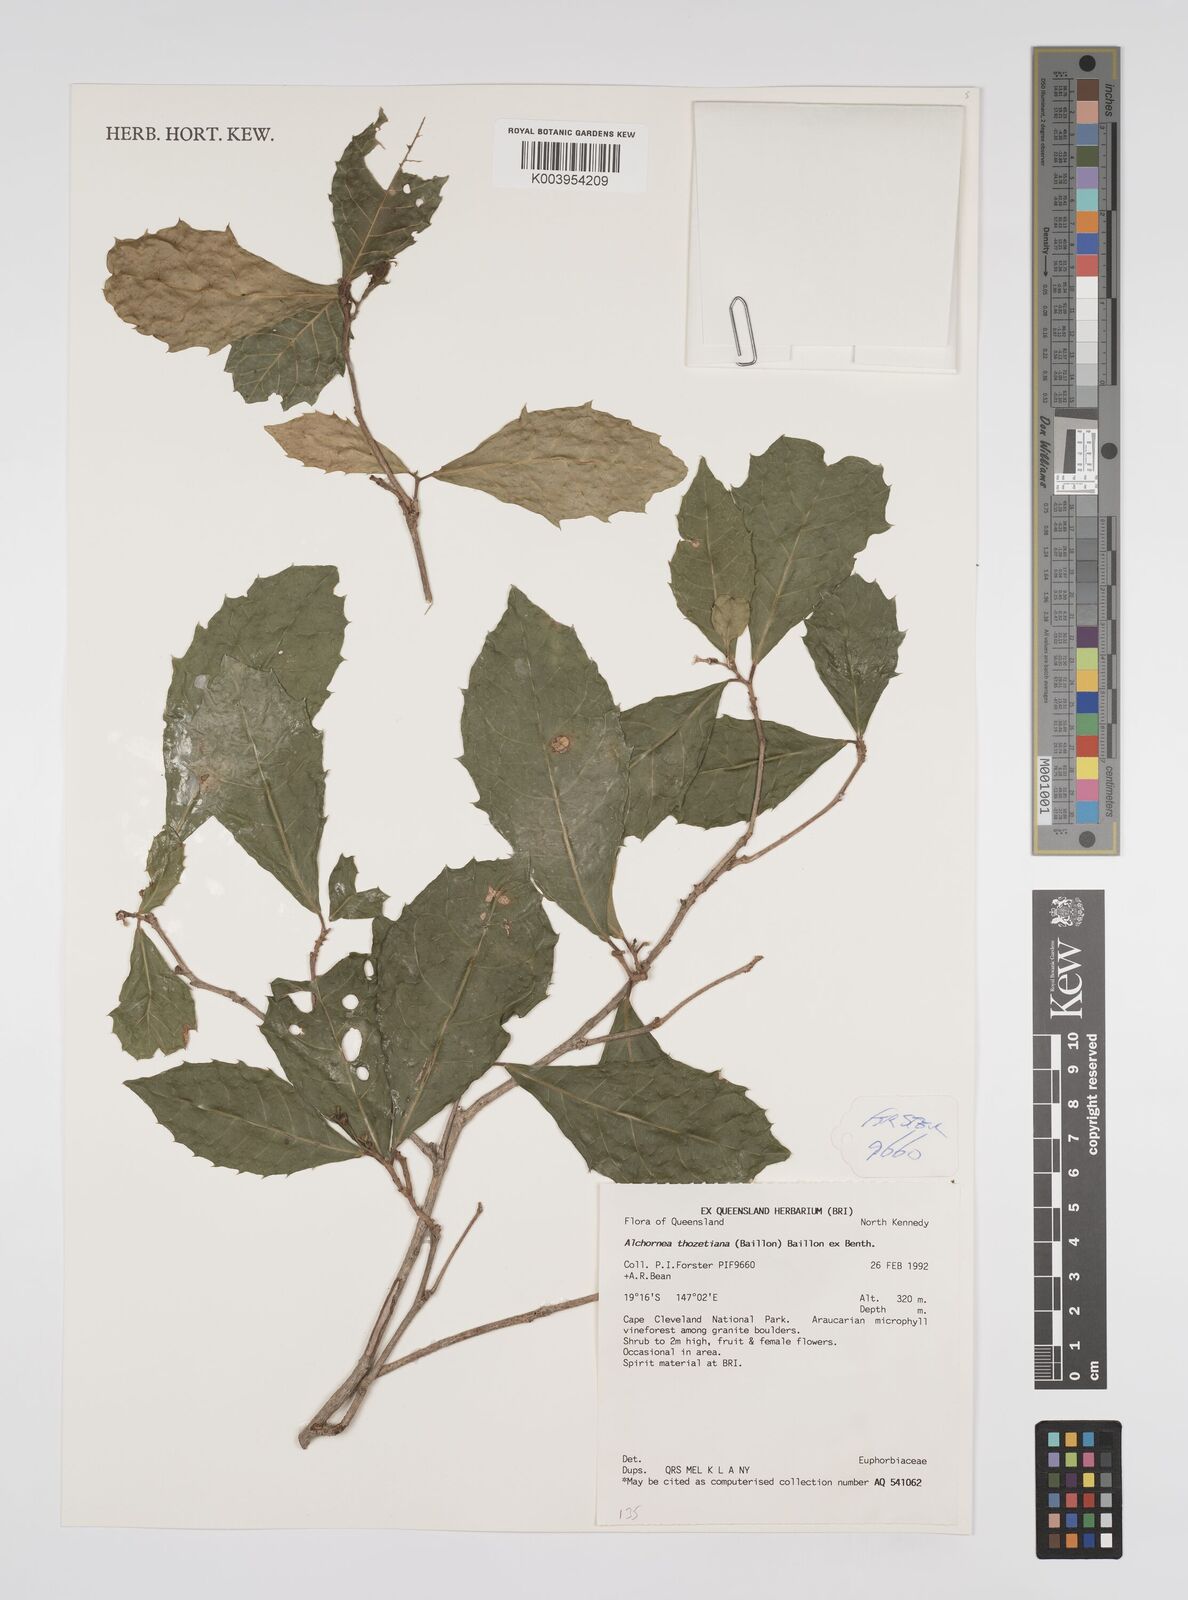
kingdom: Plantae
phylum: Tracheophyta
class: Magnoliopsida
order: Malpighiales
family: Euphorbiaceae
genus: Alchornea
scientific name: Alchornea ilicifolia
